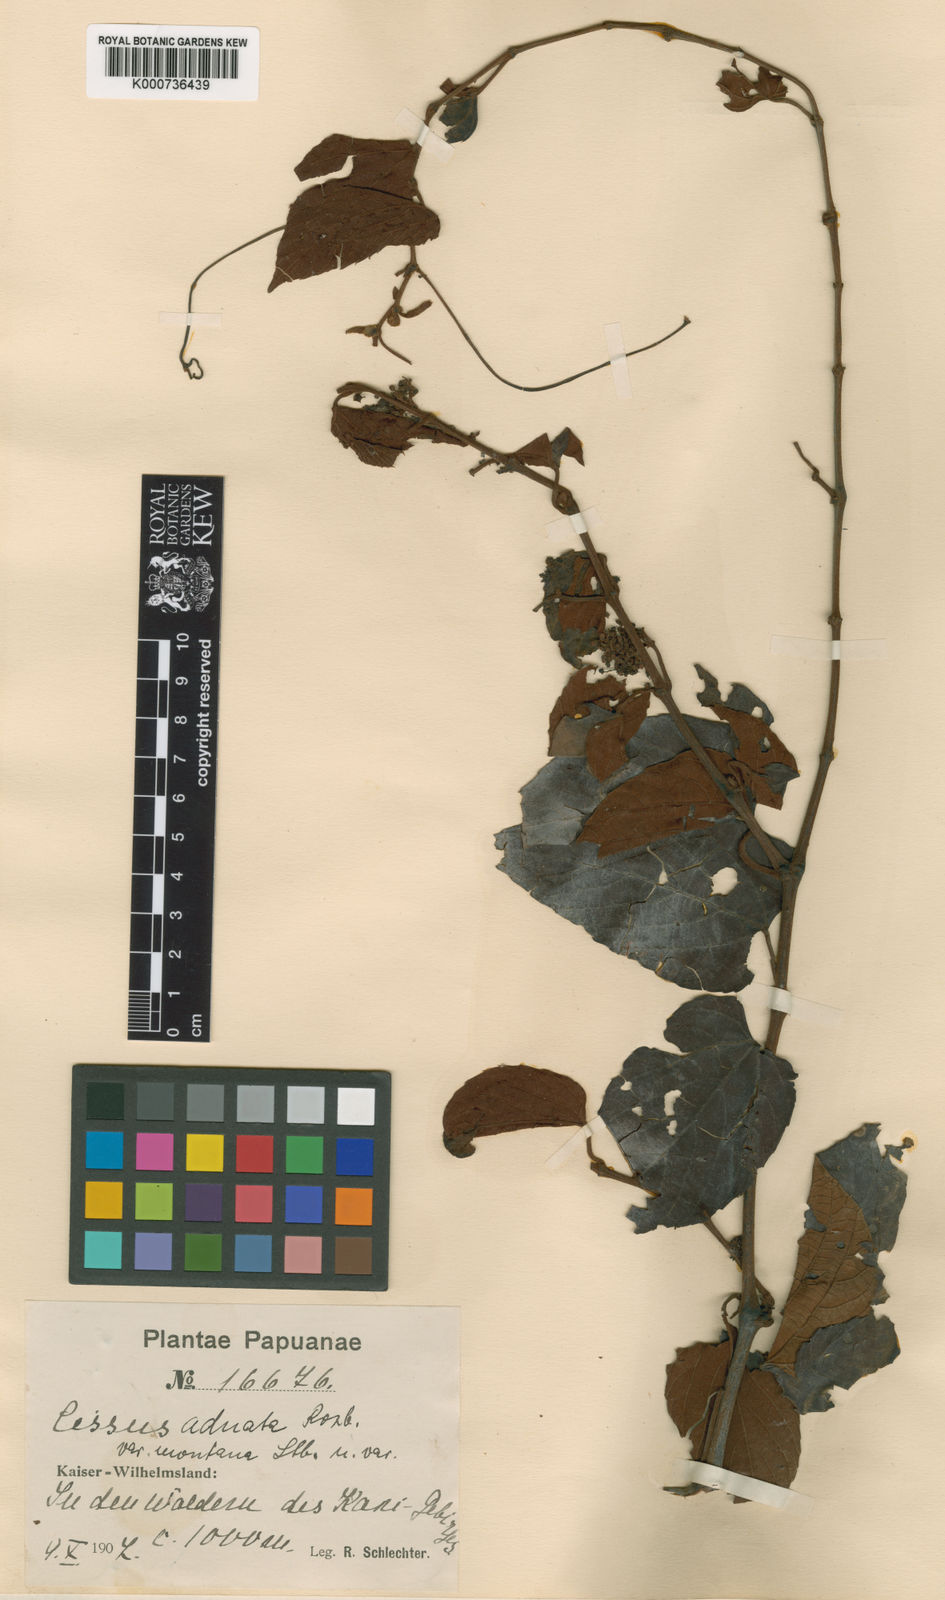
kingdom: Plantae
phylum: Tracheophyta
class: Magnoliopsida
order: Vitales
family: Vitaceae
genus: Cissus
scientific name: Cissus adnata
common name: Heart-leaf-grape
